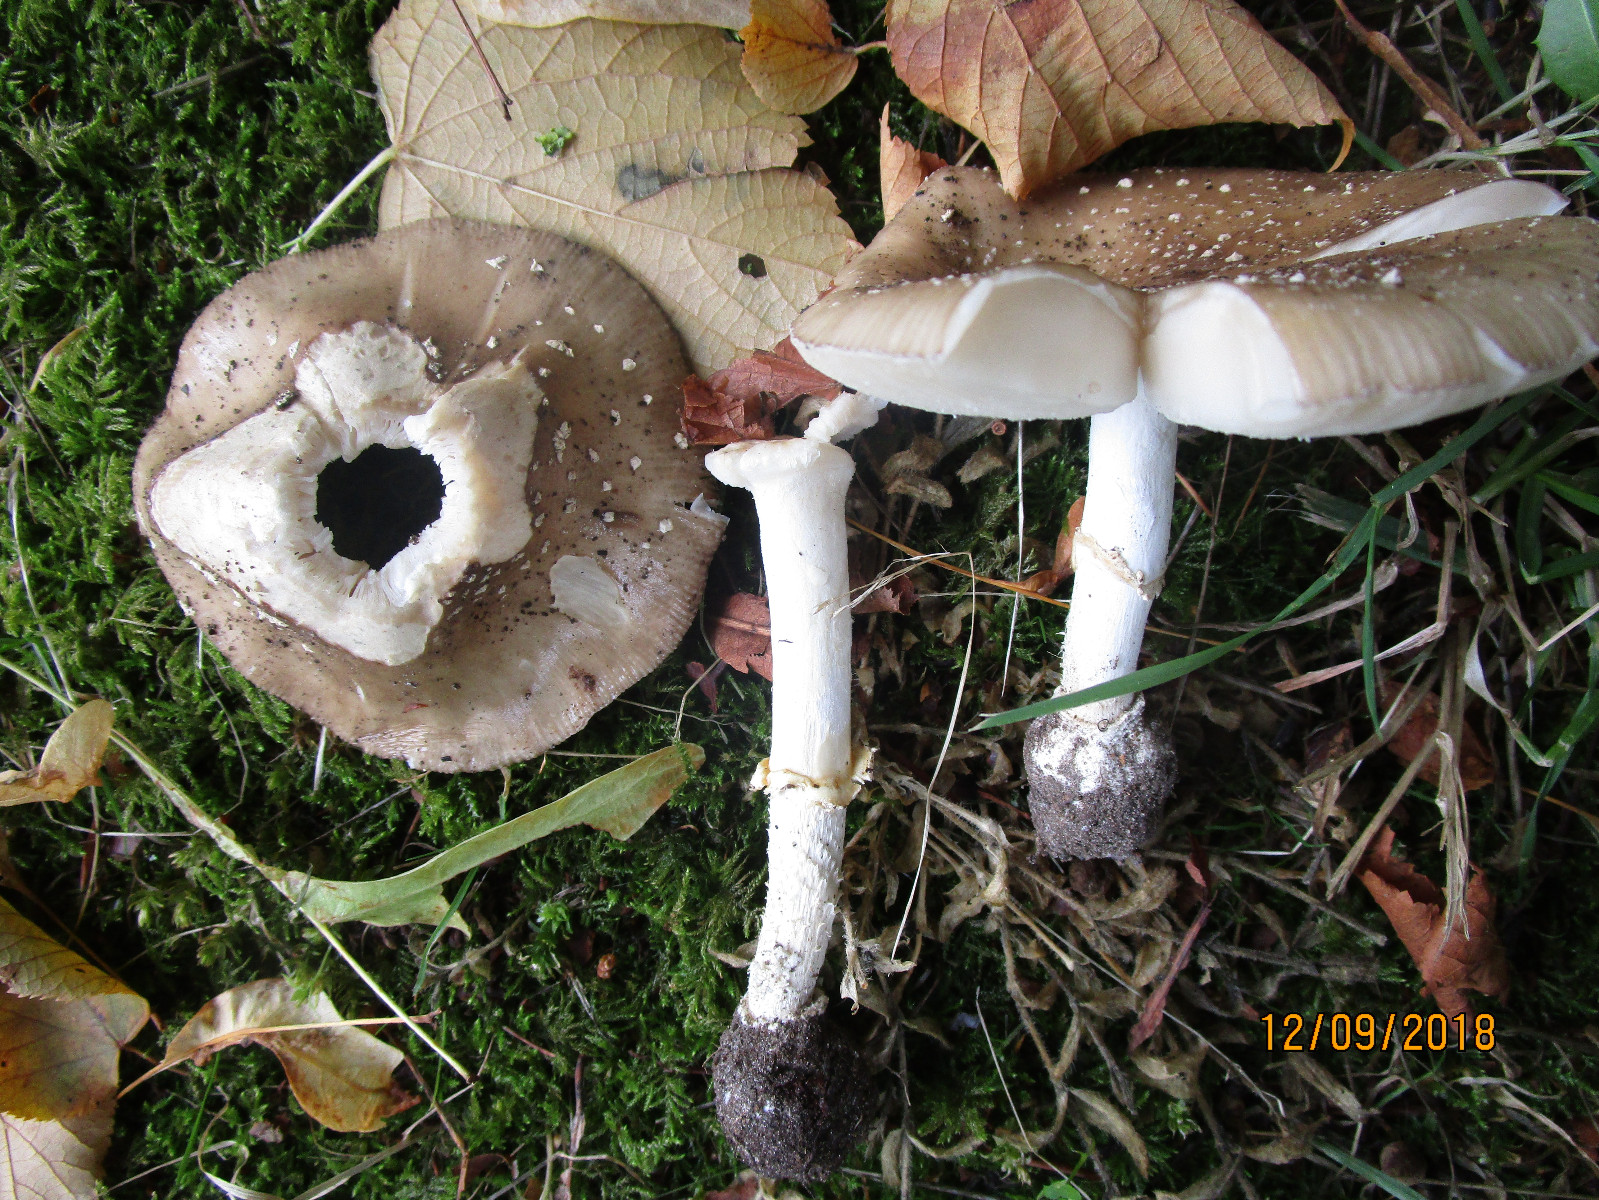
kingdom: Fungi
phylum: Basidiomycota
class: Agaricomycetes
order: Agaricales
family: Amanitaceae
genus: Amanita
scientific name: Amanita pantherina
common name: panter-fluesvamp
